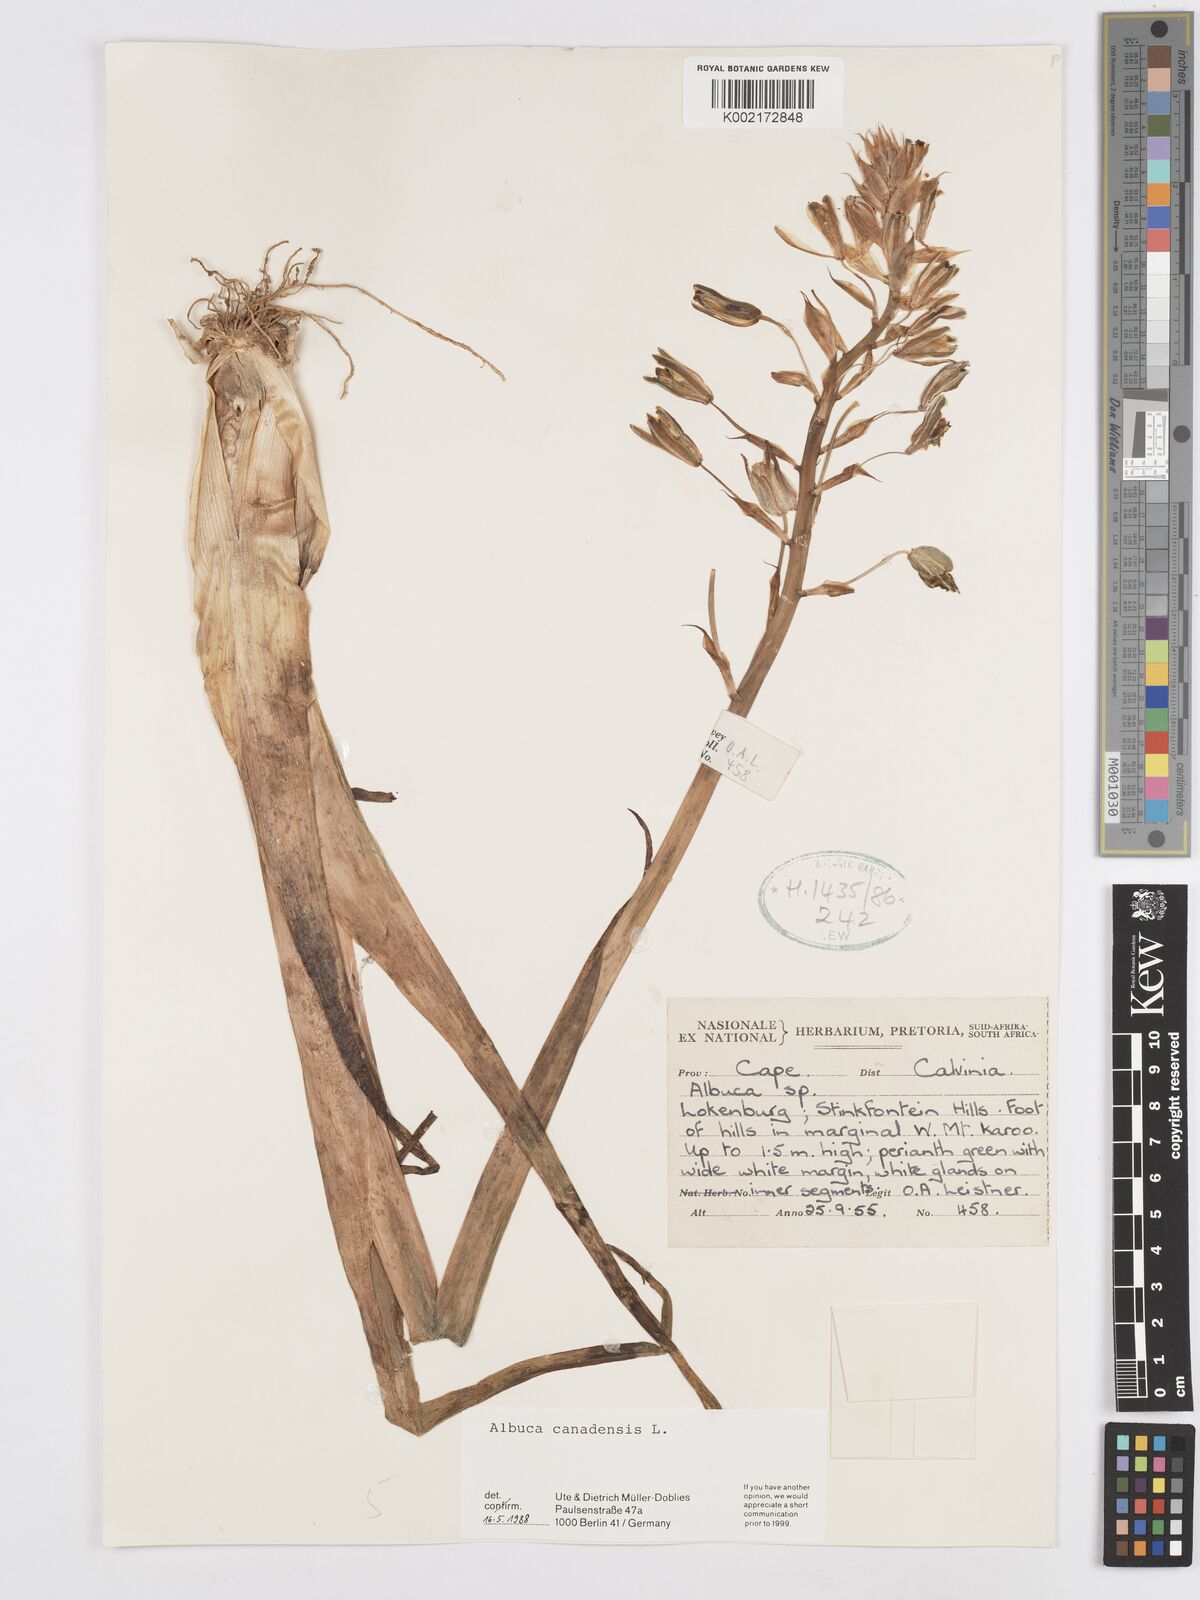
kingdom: Plantae
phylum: Tracheophyta
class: Liliopsida
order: Asparagales
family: Asparagaceae
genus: Albuca
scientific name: Albuca canadensis
